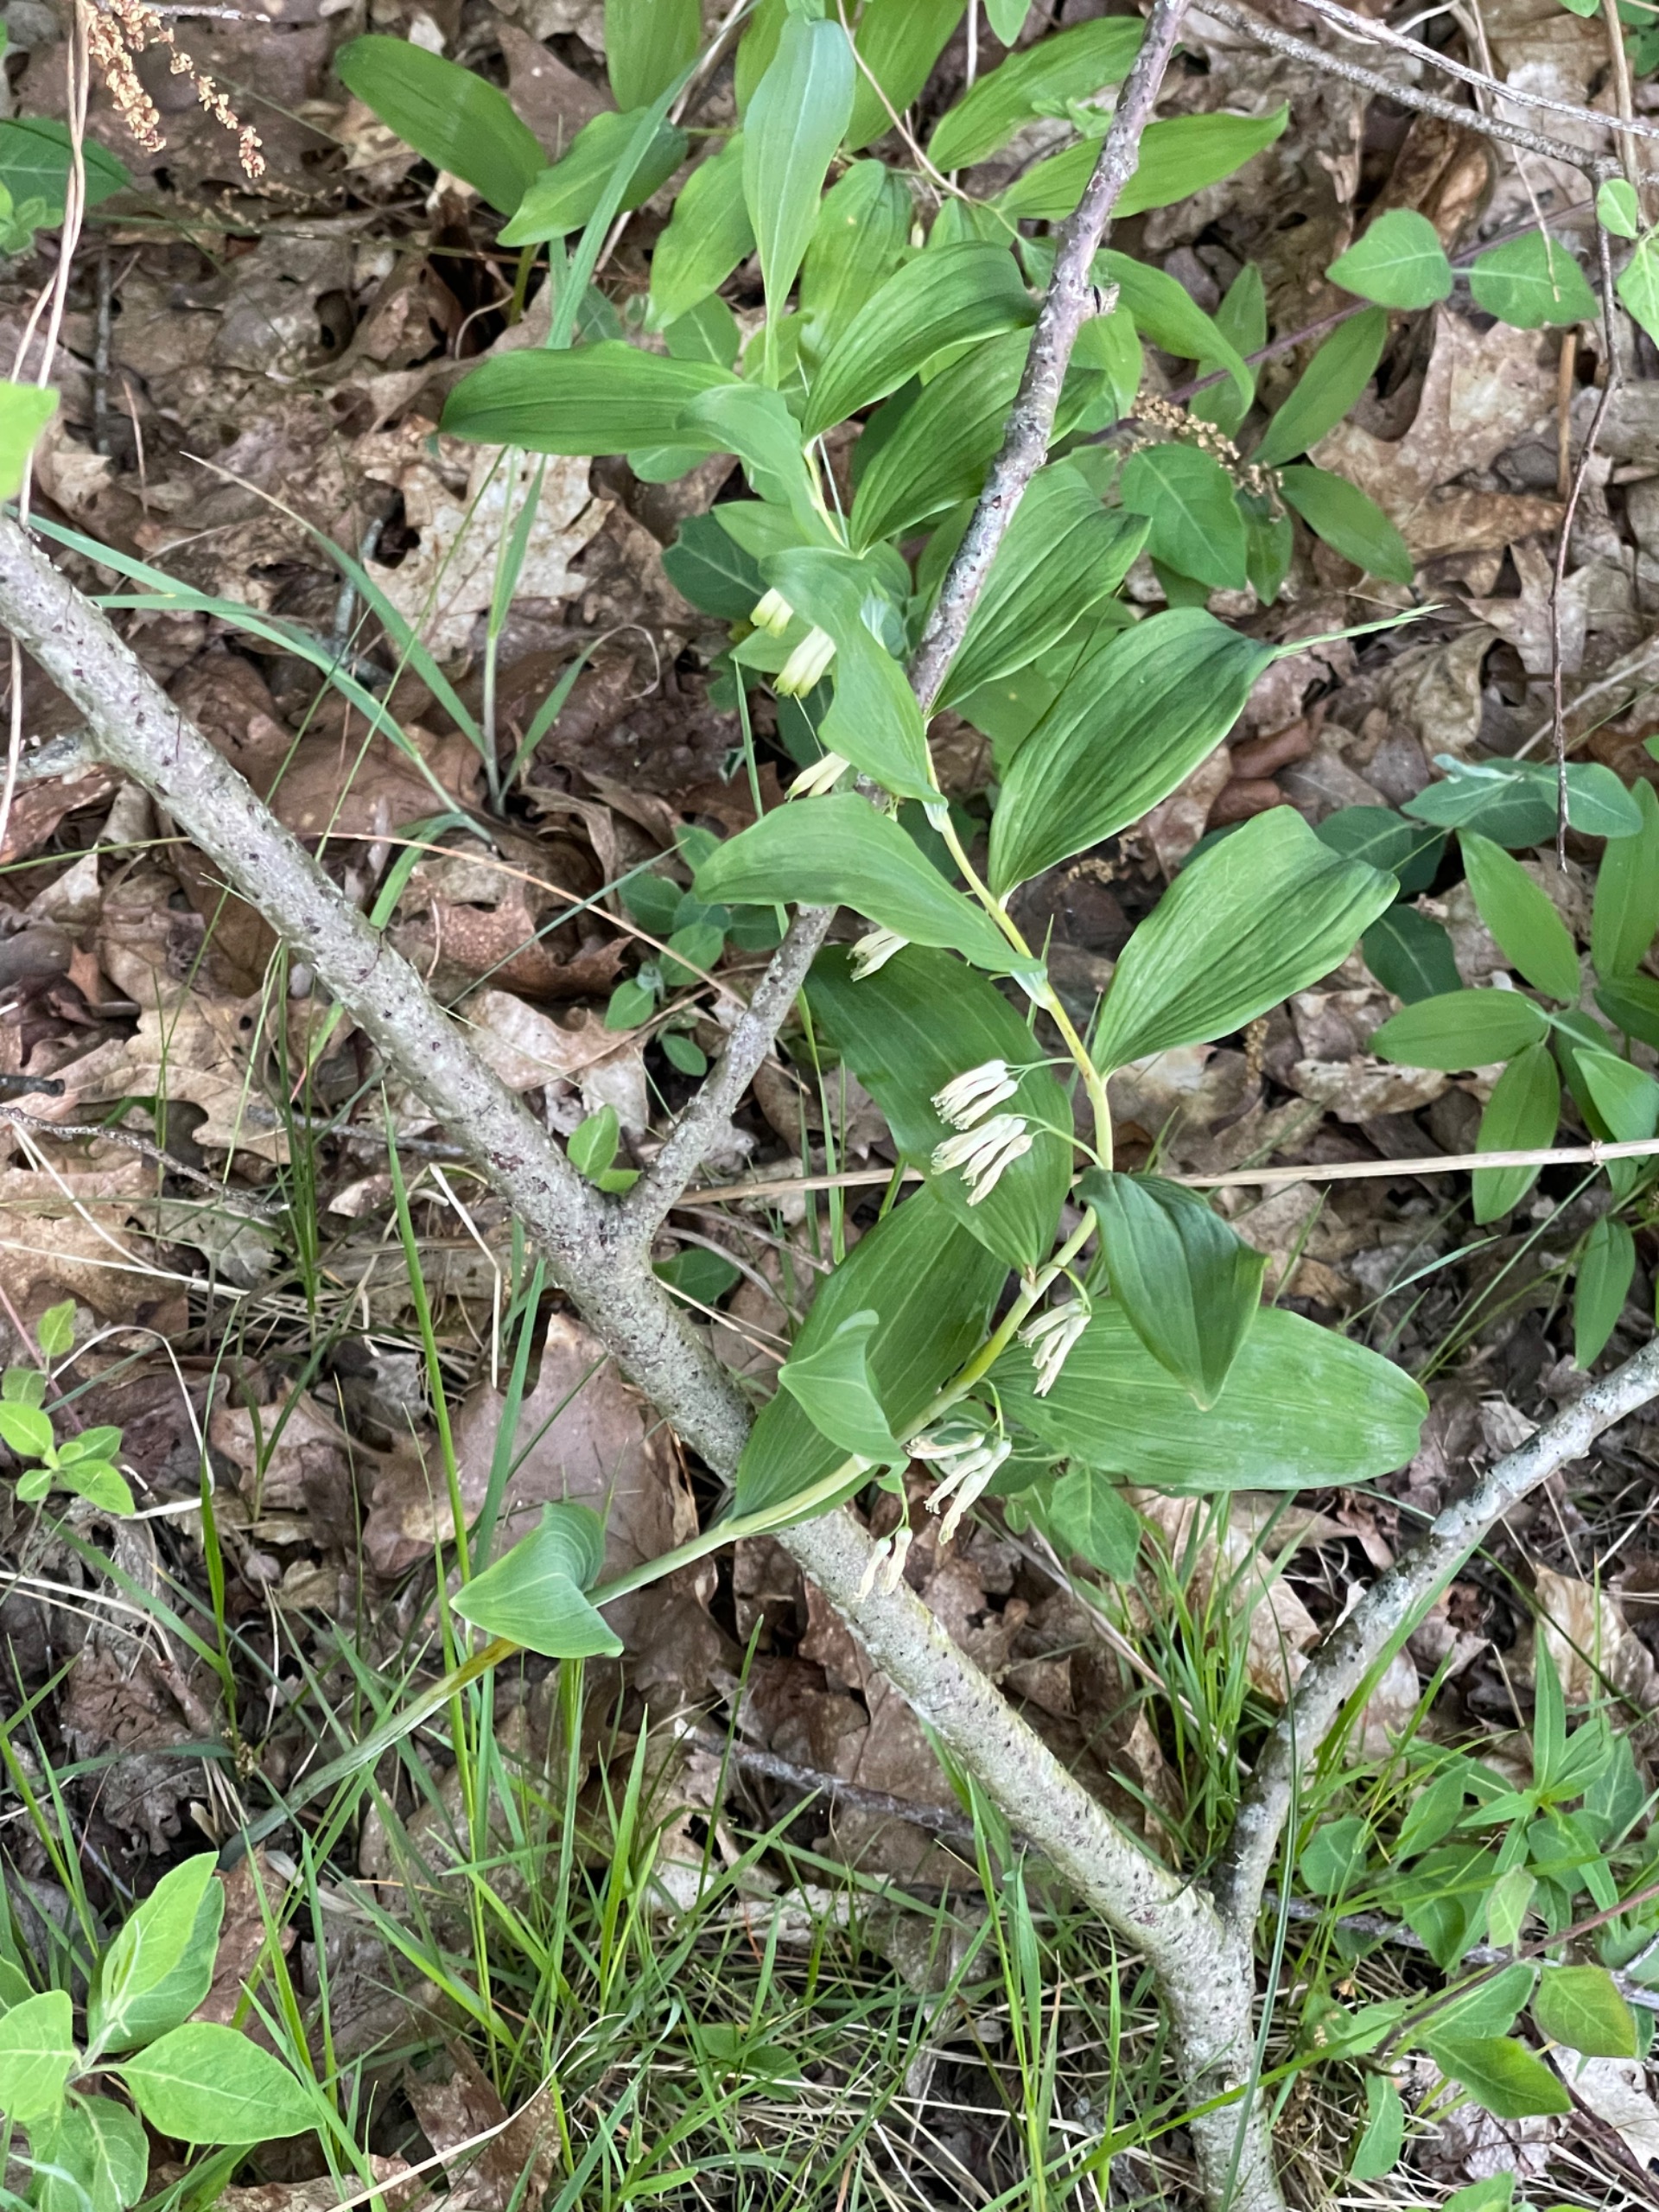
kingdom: Plantae
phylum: Tracheophyta
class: Liliopsida
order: Asparagales
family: Asparagaceae
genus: Polygonatum
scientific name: Polygonatum multiflorum
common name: Stor konval
